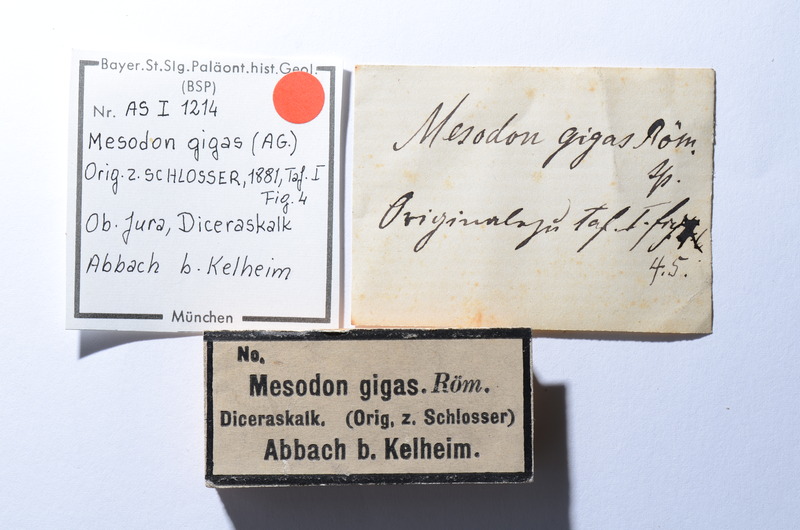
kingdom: Animalia
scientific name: Animalia
